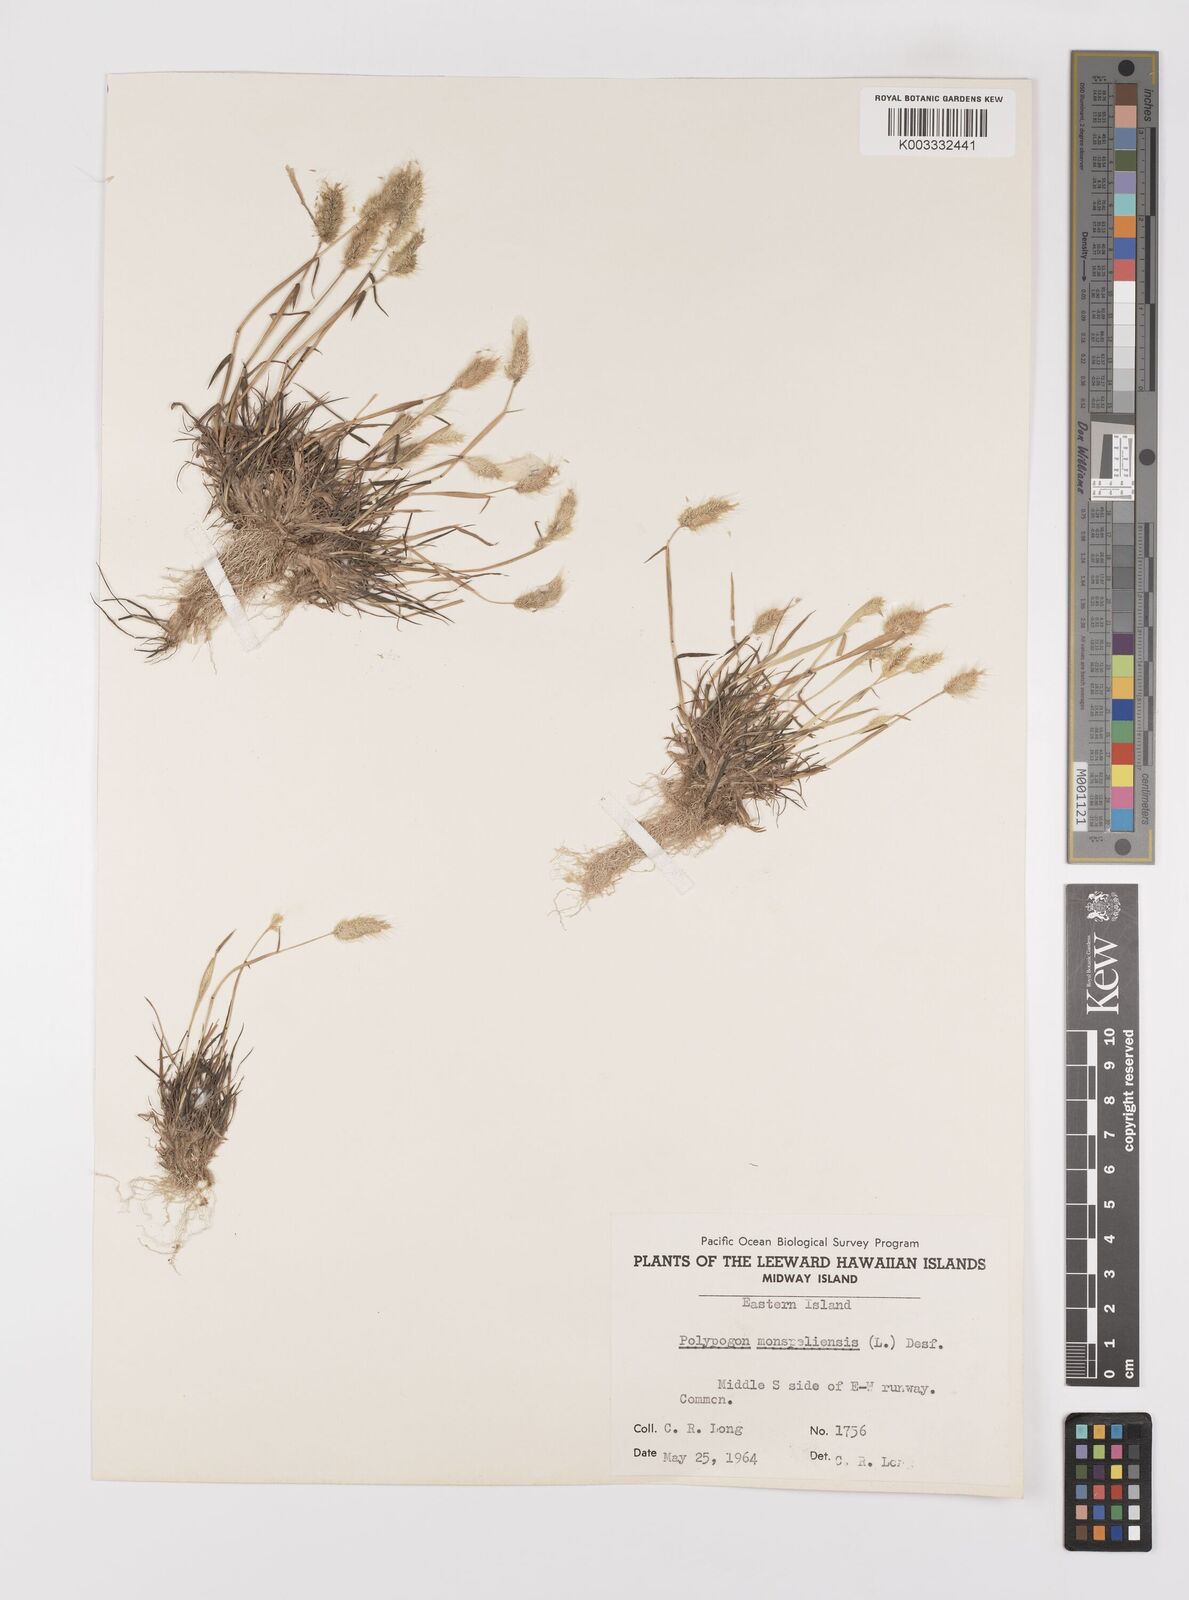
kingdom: Plantae
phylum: Tracheophyta
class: Liliopsida
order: Poales
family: Poaceae
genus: Polypogon
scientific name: Polypogon monspeliensis
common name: Annual rabbitsfoot grass
